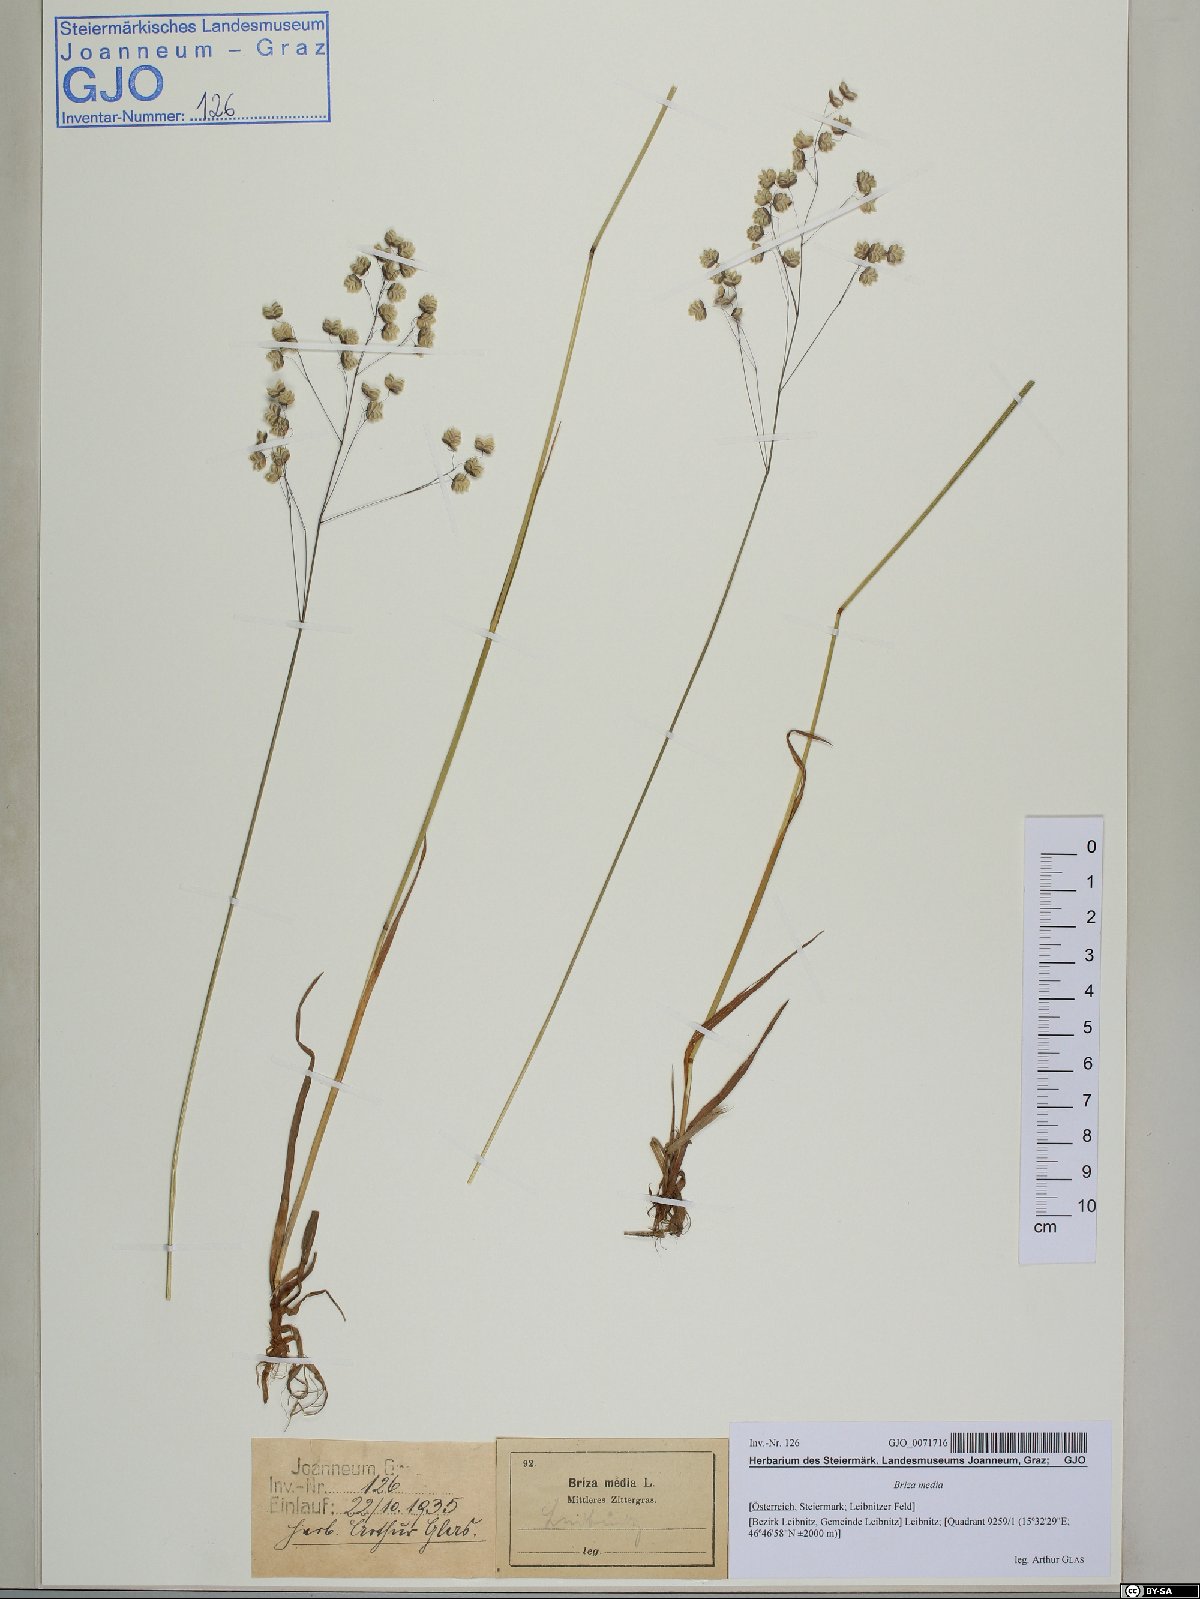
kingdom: Plantae
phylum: Tracheophyta
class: Liliopsida
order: Poales
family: Poaceae
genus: Briza
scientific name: Briza media
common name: Quaking grass
